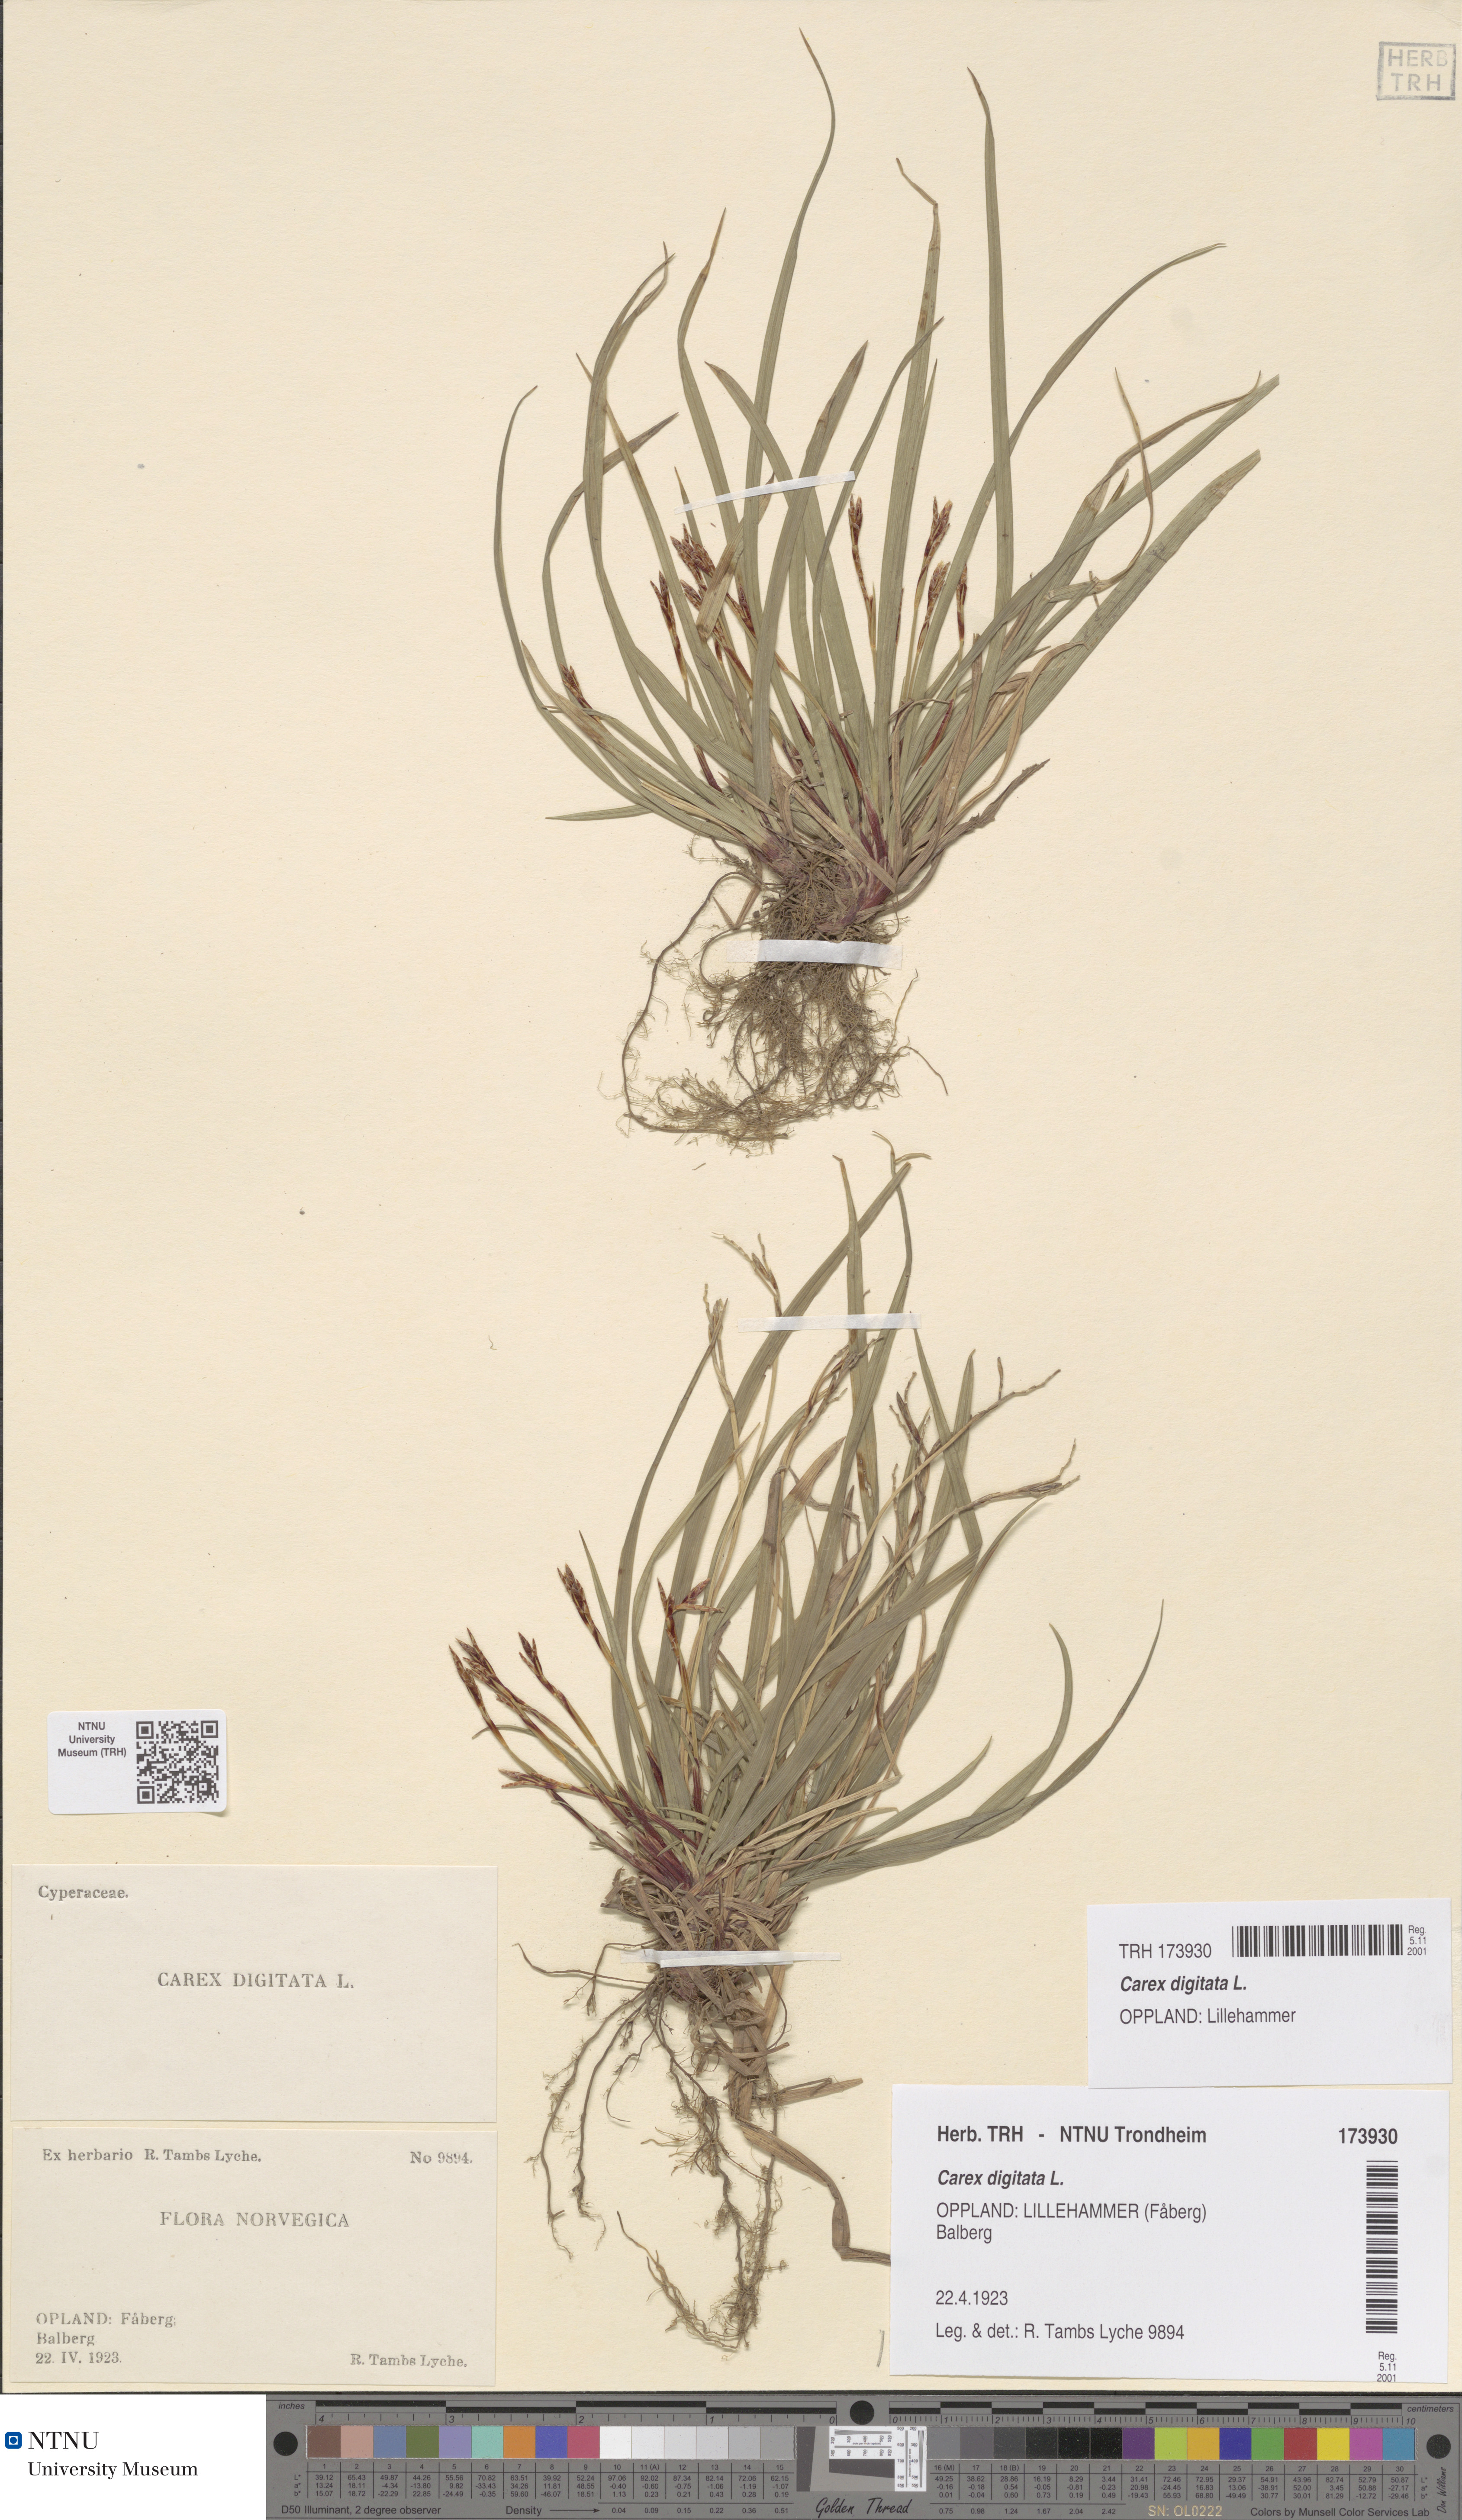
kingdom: Plantae
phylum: Tracheophyta
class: Liliopsida
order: Poales
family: Cyperaceae
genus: Carex
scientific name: Carex digitata
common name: Fingered sedge
